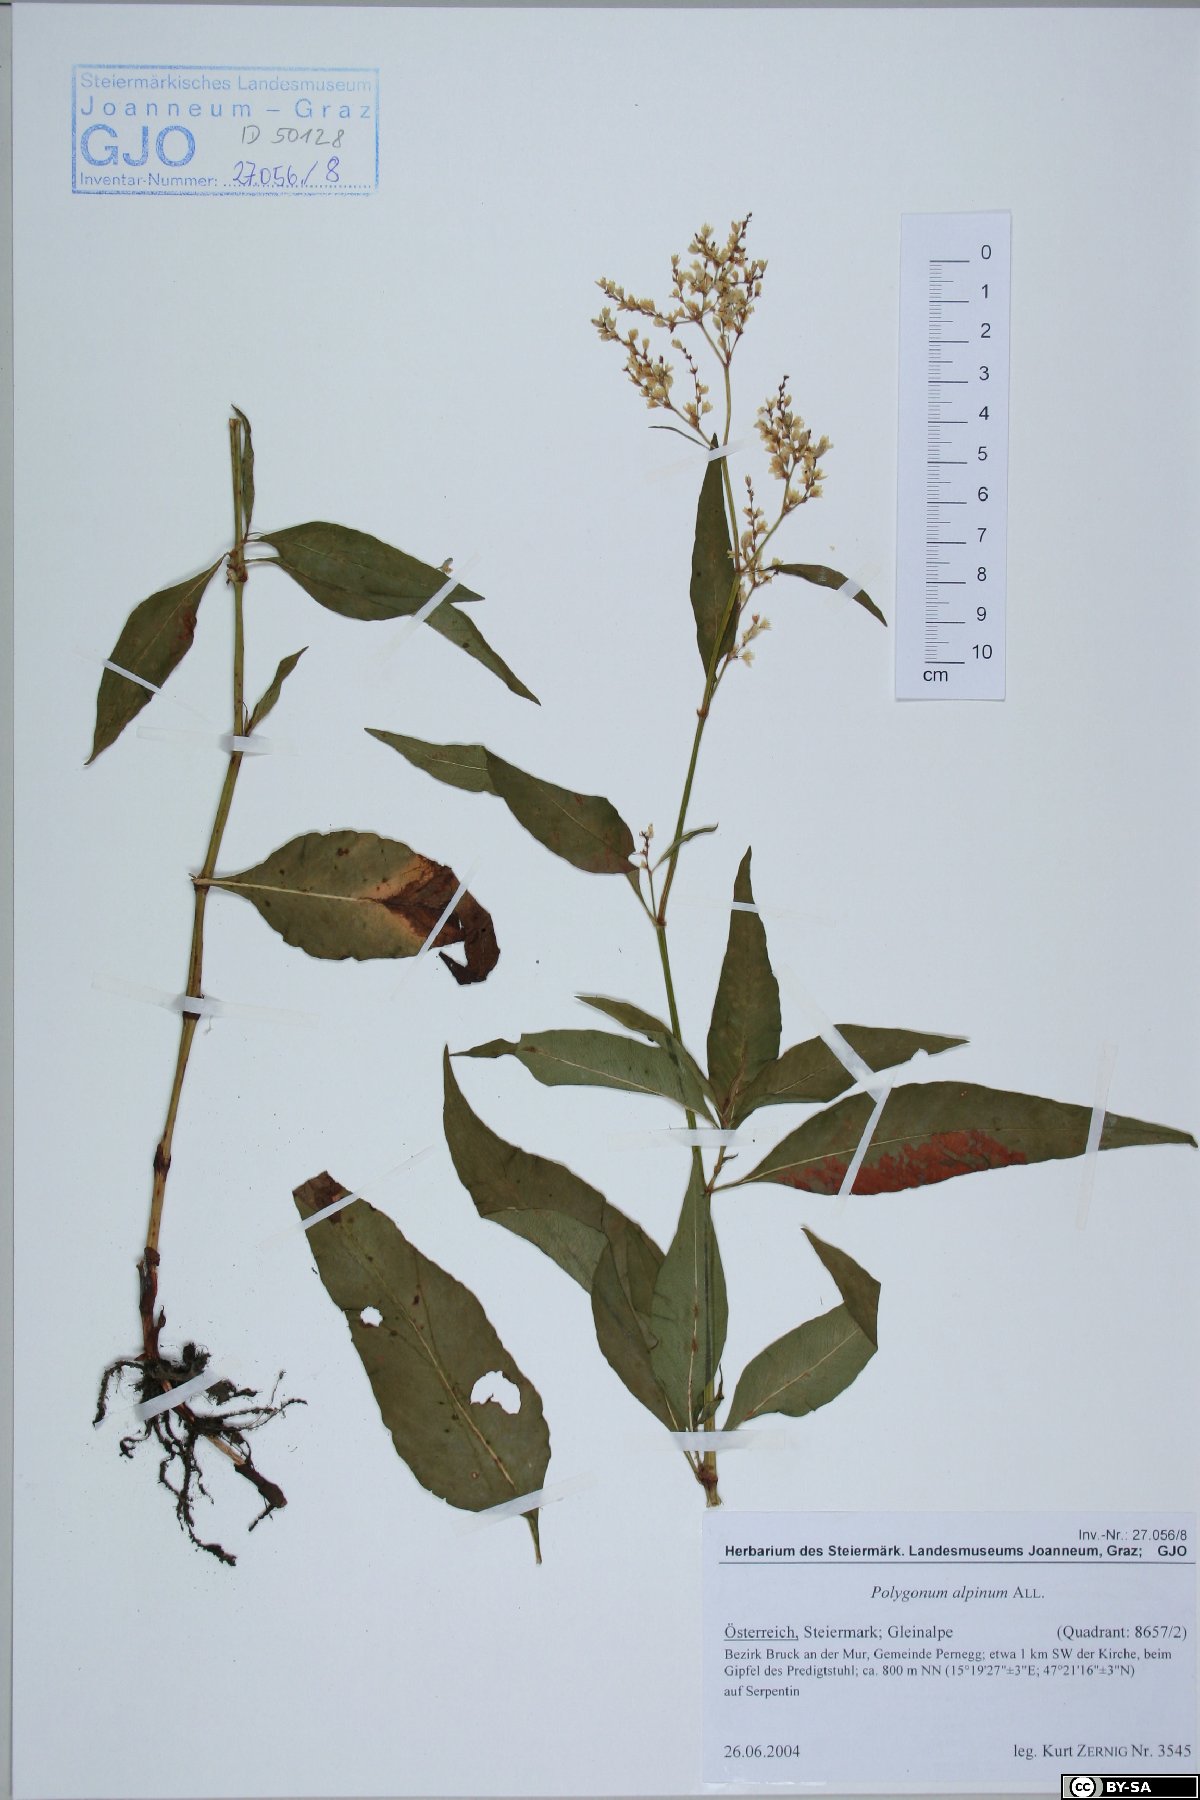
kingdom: Plantae
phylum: Tracheophyta
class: Magnoliopsida
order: Caryophyllales
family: Polygonaceae
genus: Koenigia
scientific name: Koenigia alpina
